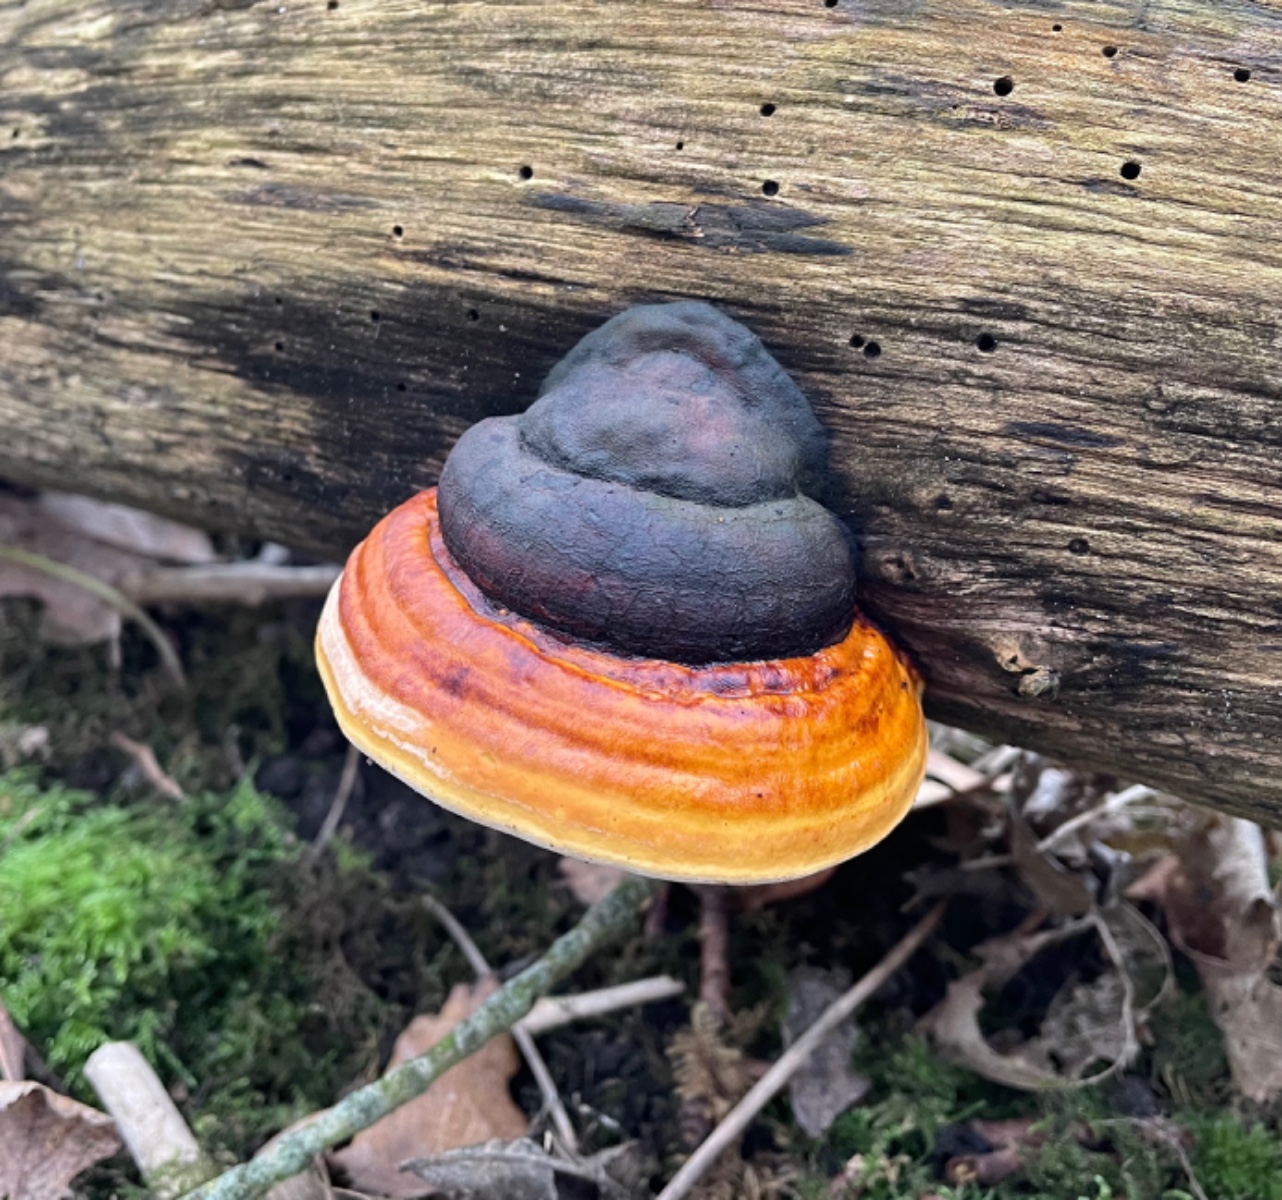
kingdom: Fungi
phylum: Basidiomycota
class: Agaricomycetes
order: Polyporales
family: Fomitopsidaceae
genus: Fomitopsis
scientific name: Fomitopsis pinicola
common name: randbæltet hovporesvamp
